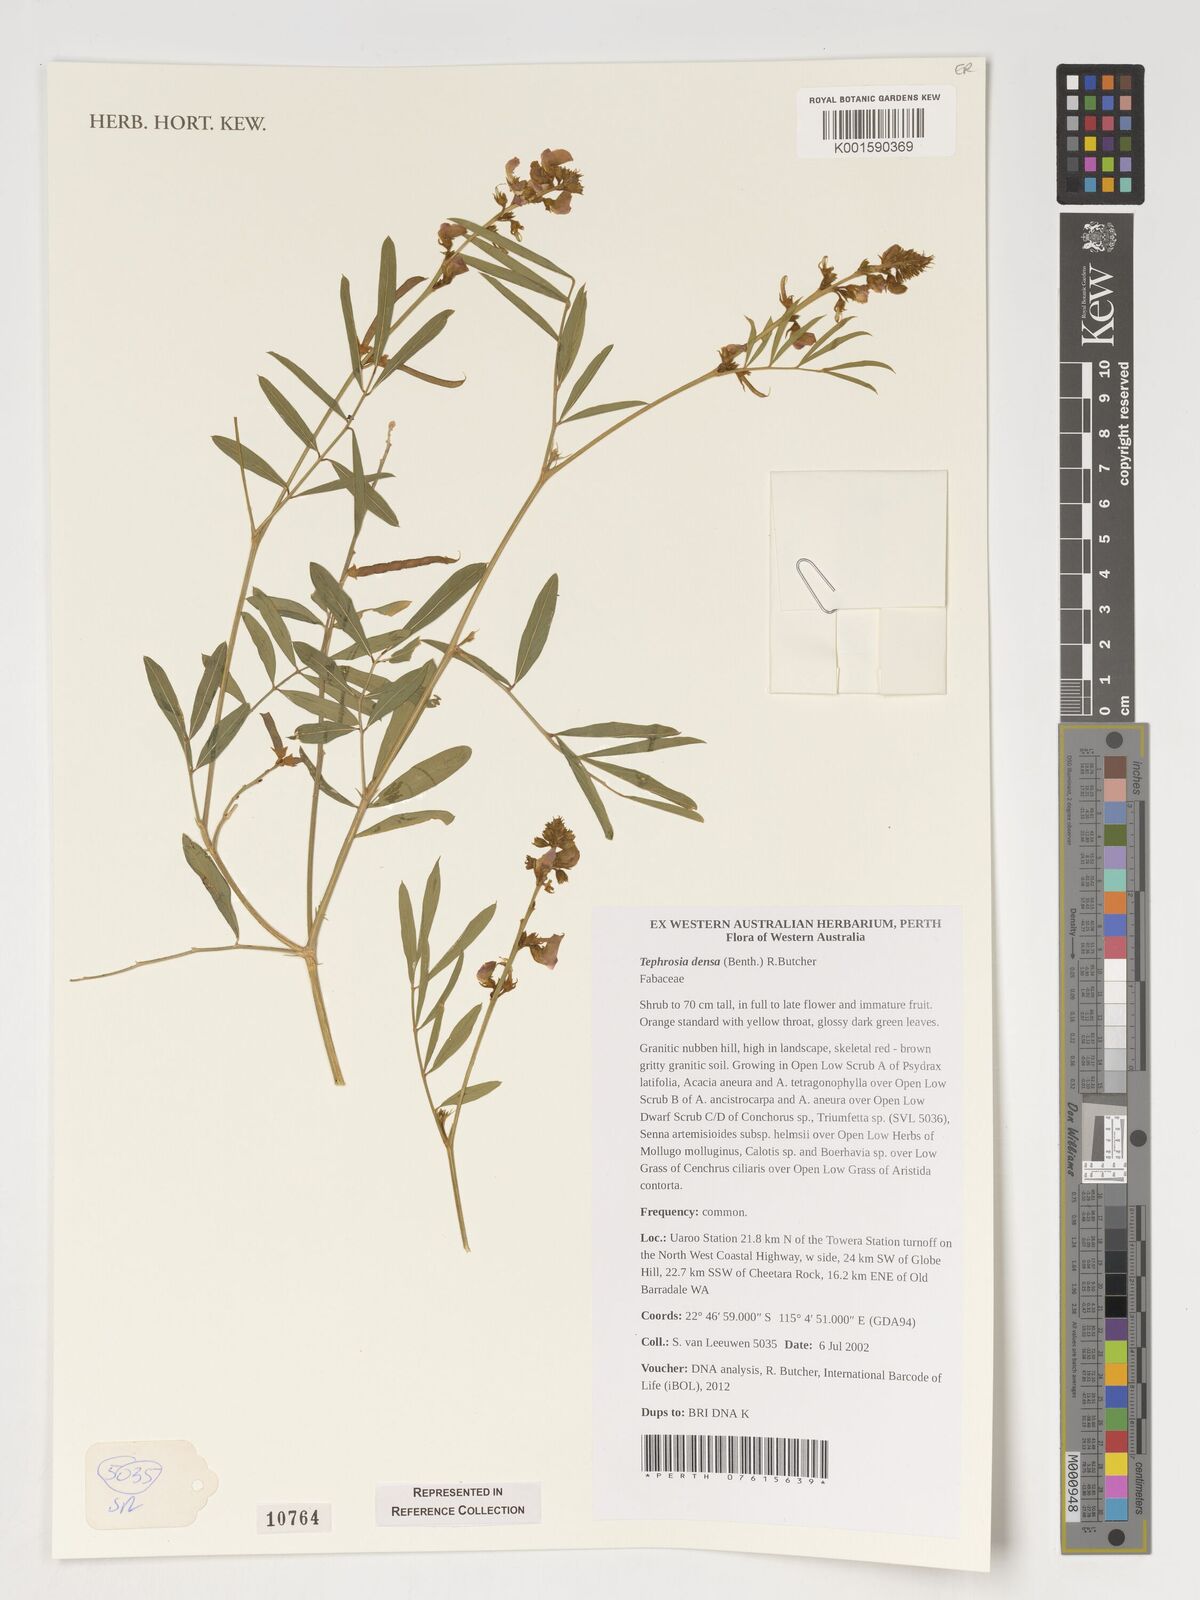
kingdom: Plantae
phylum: Tracheophyta
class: Magnoliopsida
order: Fabales
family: Fabaceae
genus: Tephrosia
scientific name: Tephrosia densa
